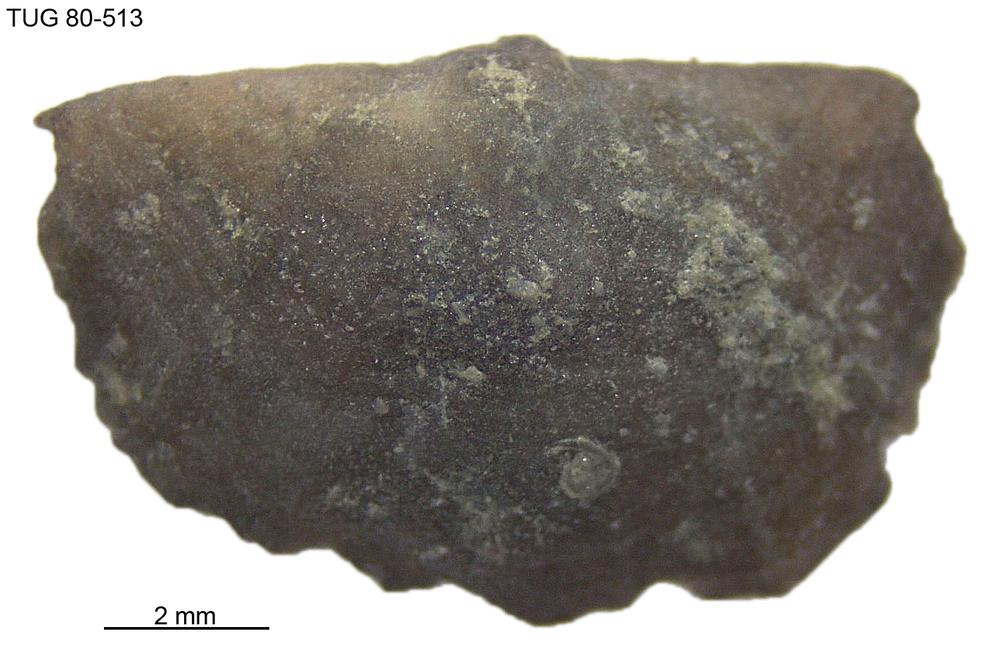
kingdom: Animalia
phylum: Brachiopoda
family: Sowerbyellidae
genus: Sowerbyella
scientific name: Sowerbyella
